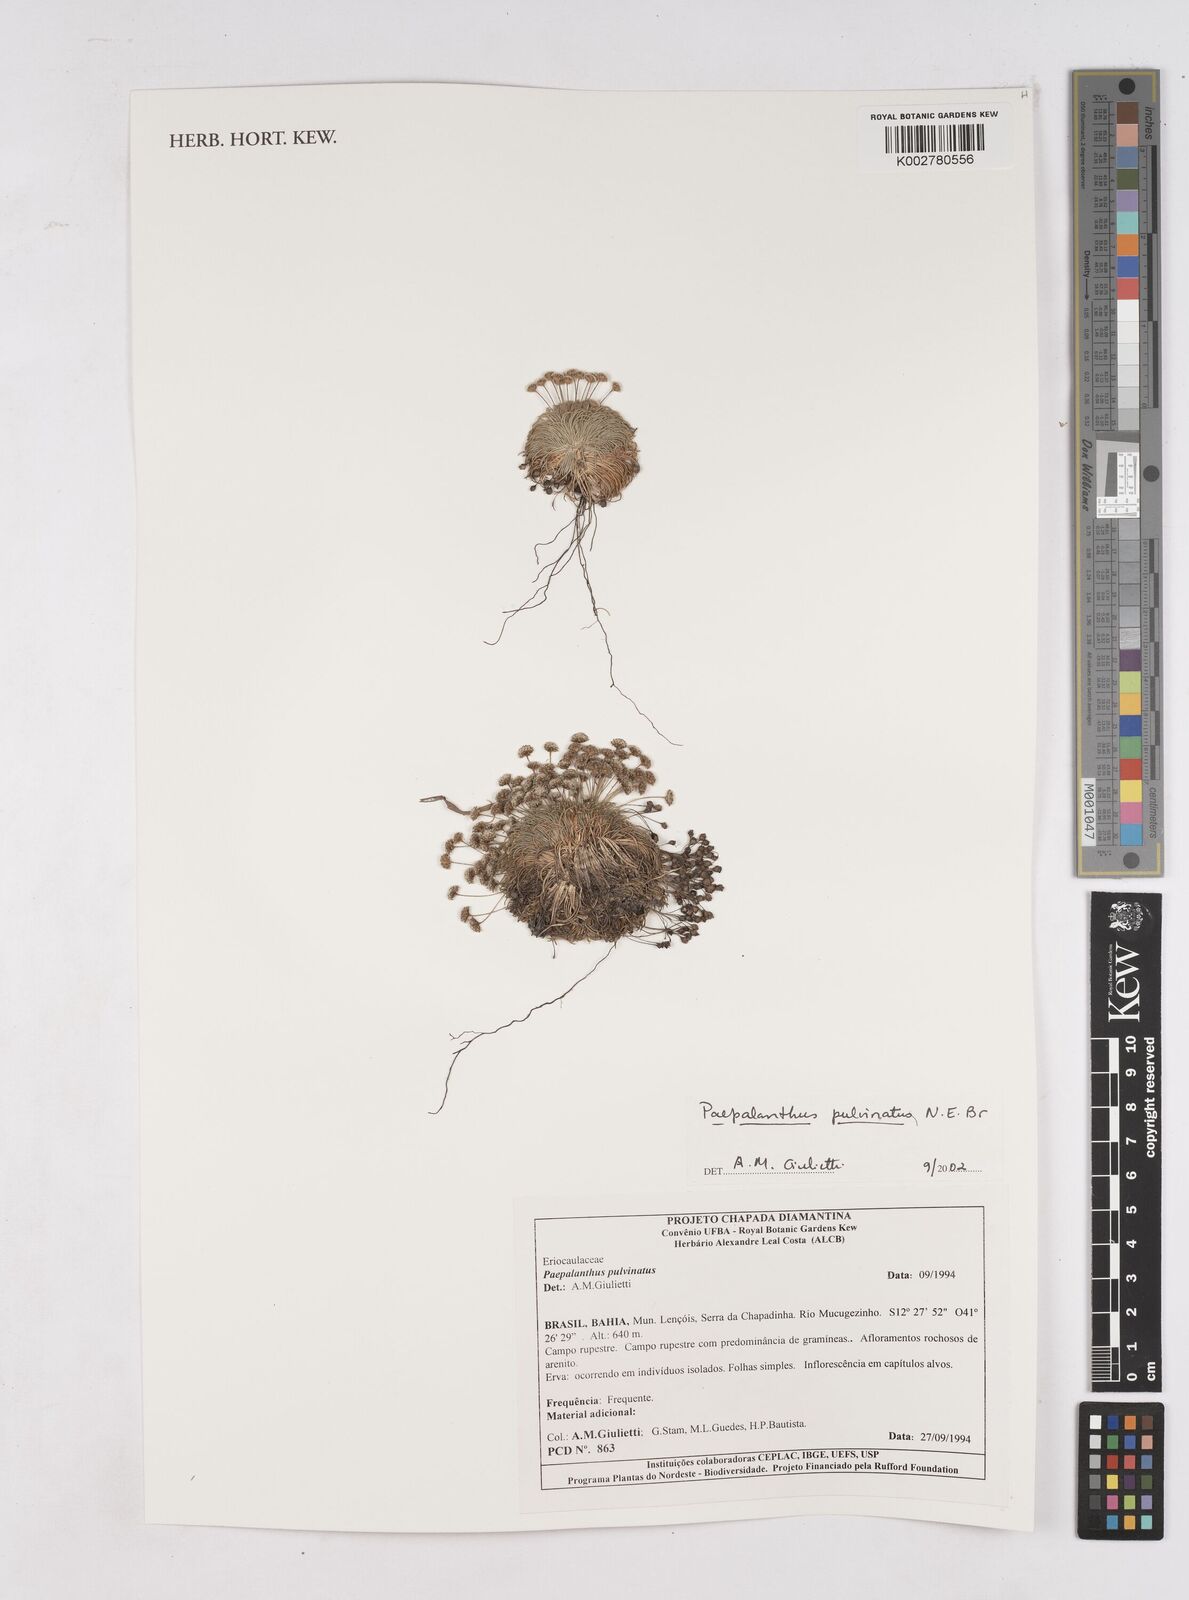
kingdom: Plantae
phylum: Tracheophyta
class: Liliopsida
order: Poales
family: Eriocaulaceae
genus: Paepalanthus
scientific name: Paepalanthus pulvinatus
